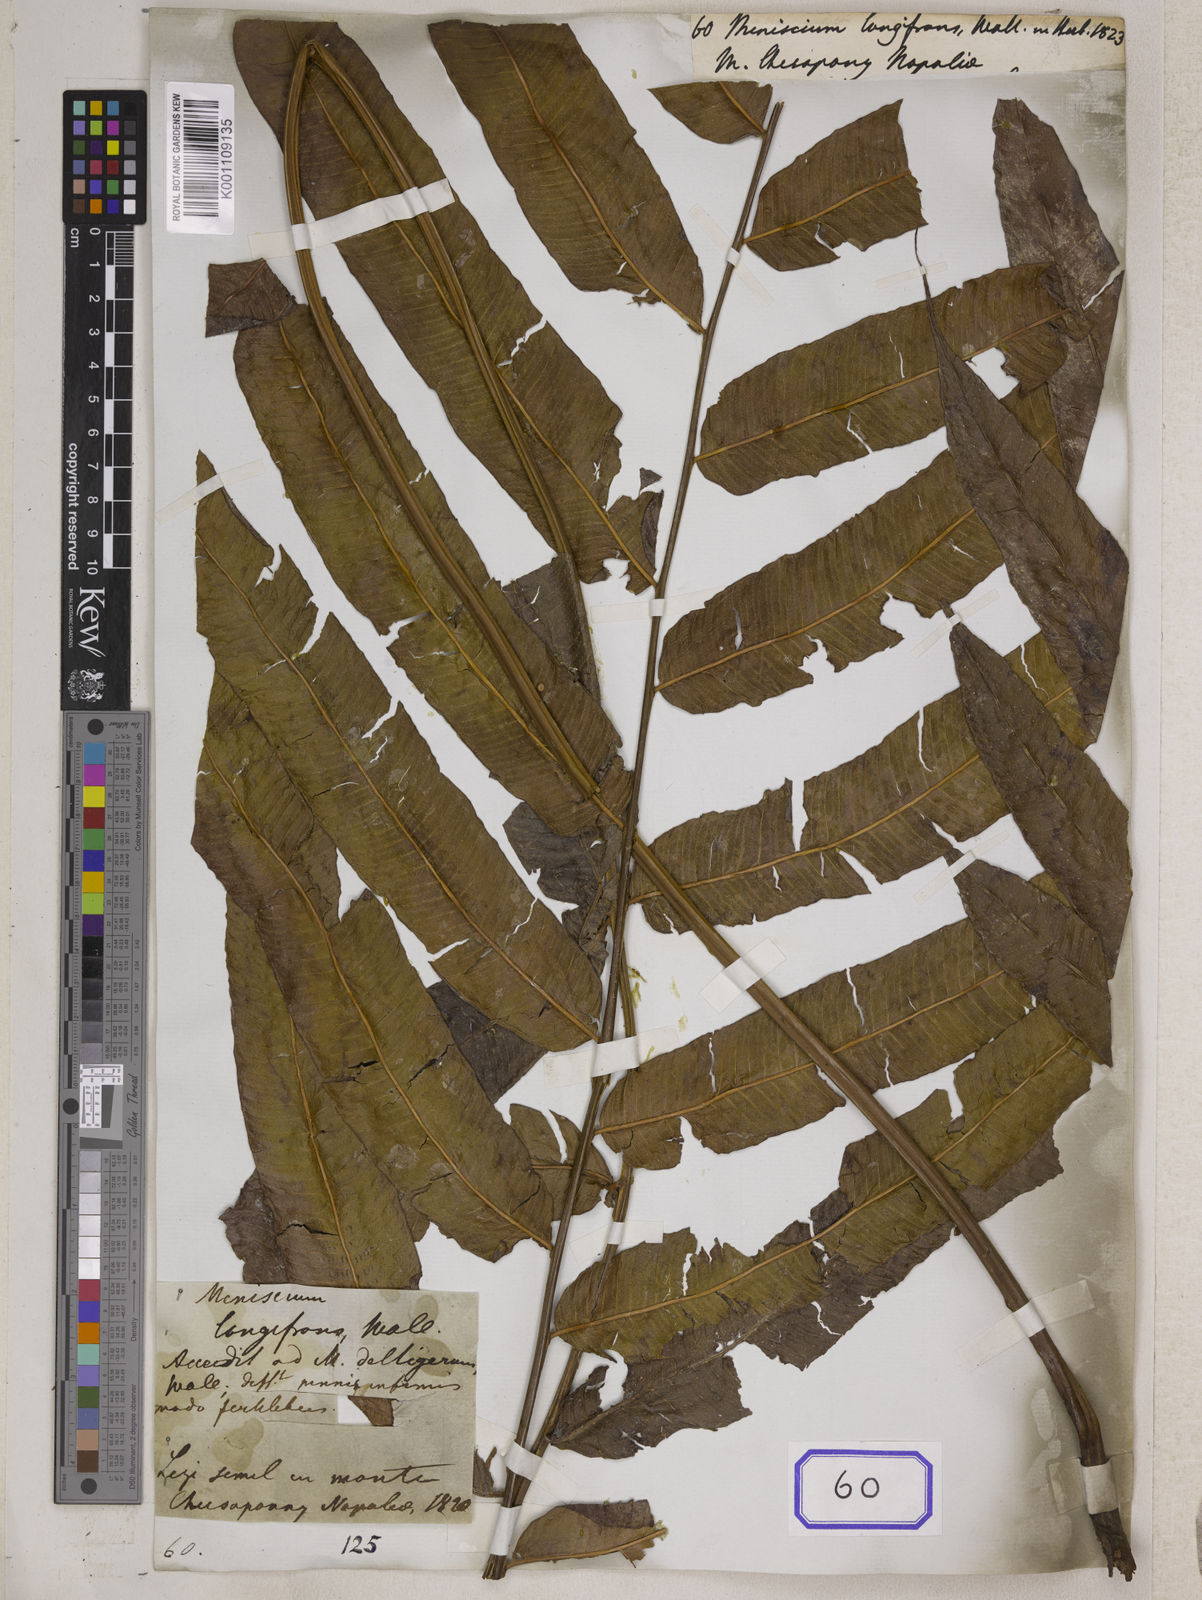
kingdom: Plantae
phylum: Tracheophyta
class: Polypodiopsida
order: Polypodiales
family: Thelypteridaceae
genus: Grypothrix
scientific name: Grypothrix cuspidata
